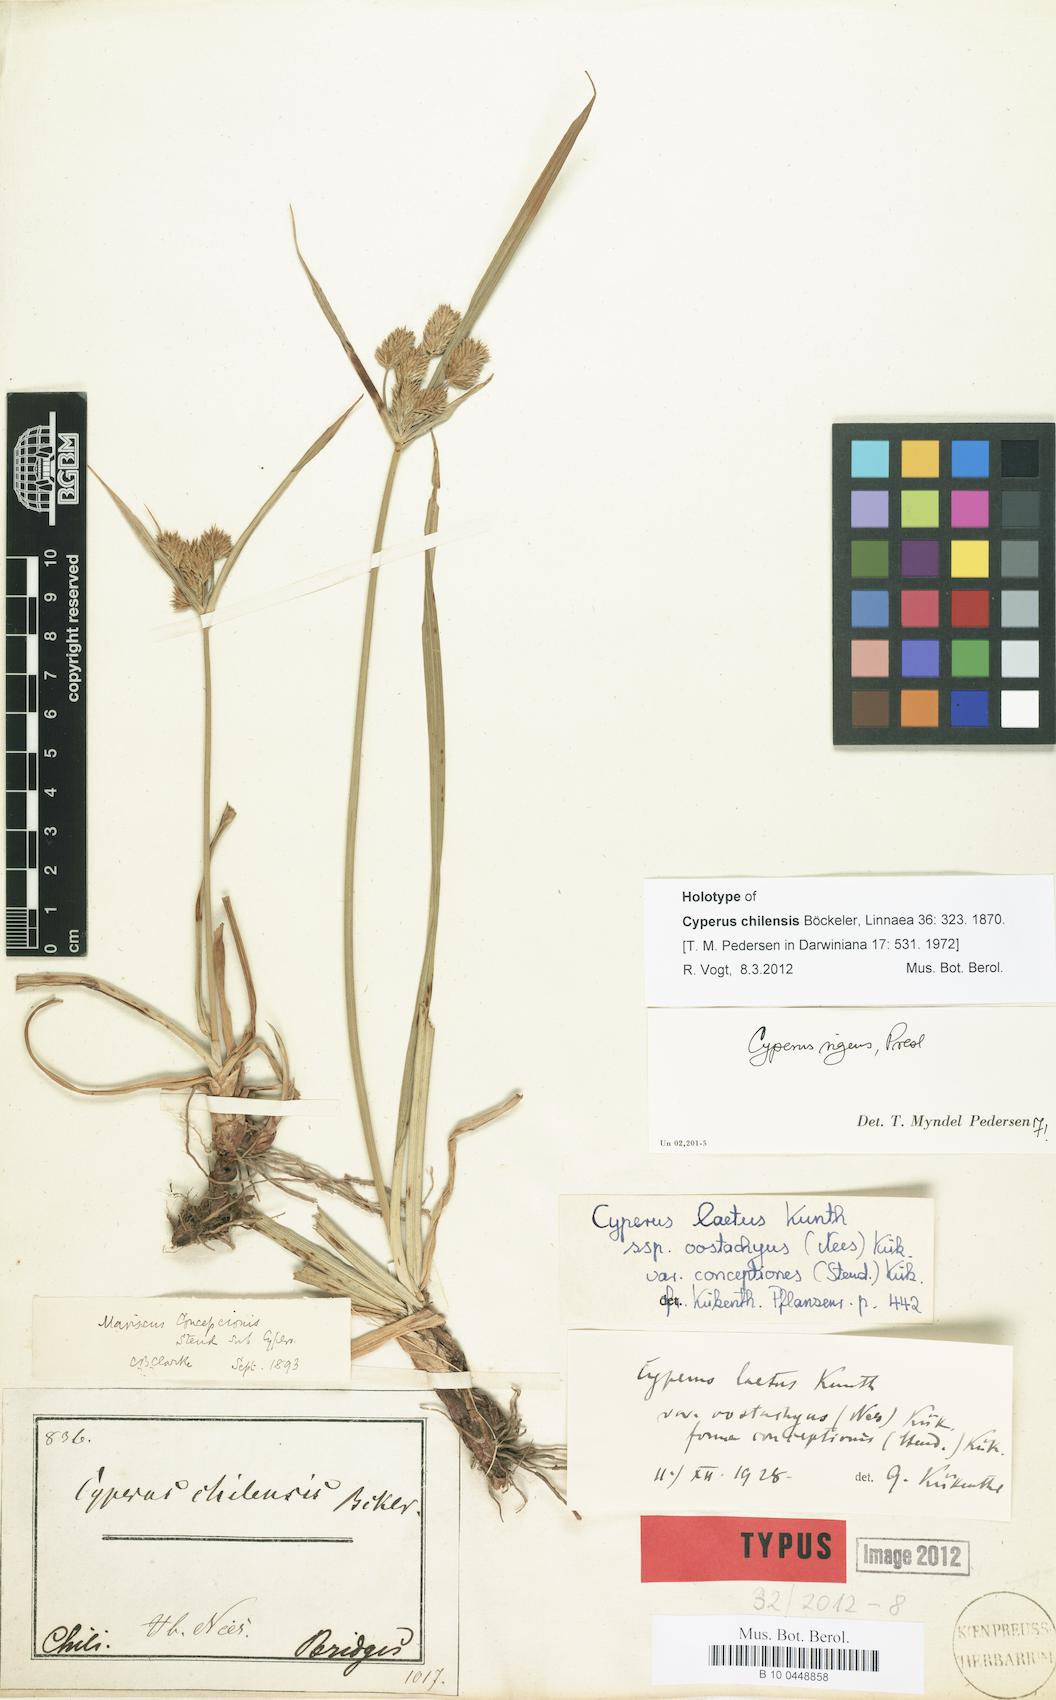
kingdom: Plantae
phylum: Tracheophyta
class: Liliopsida
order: Poales
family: Cyperaceae
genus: Cyperus
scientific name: Cyperus rigens
